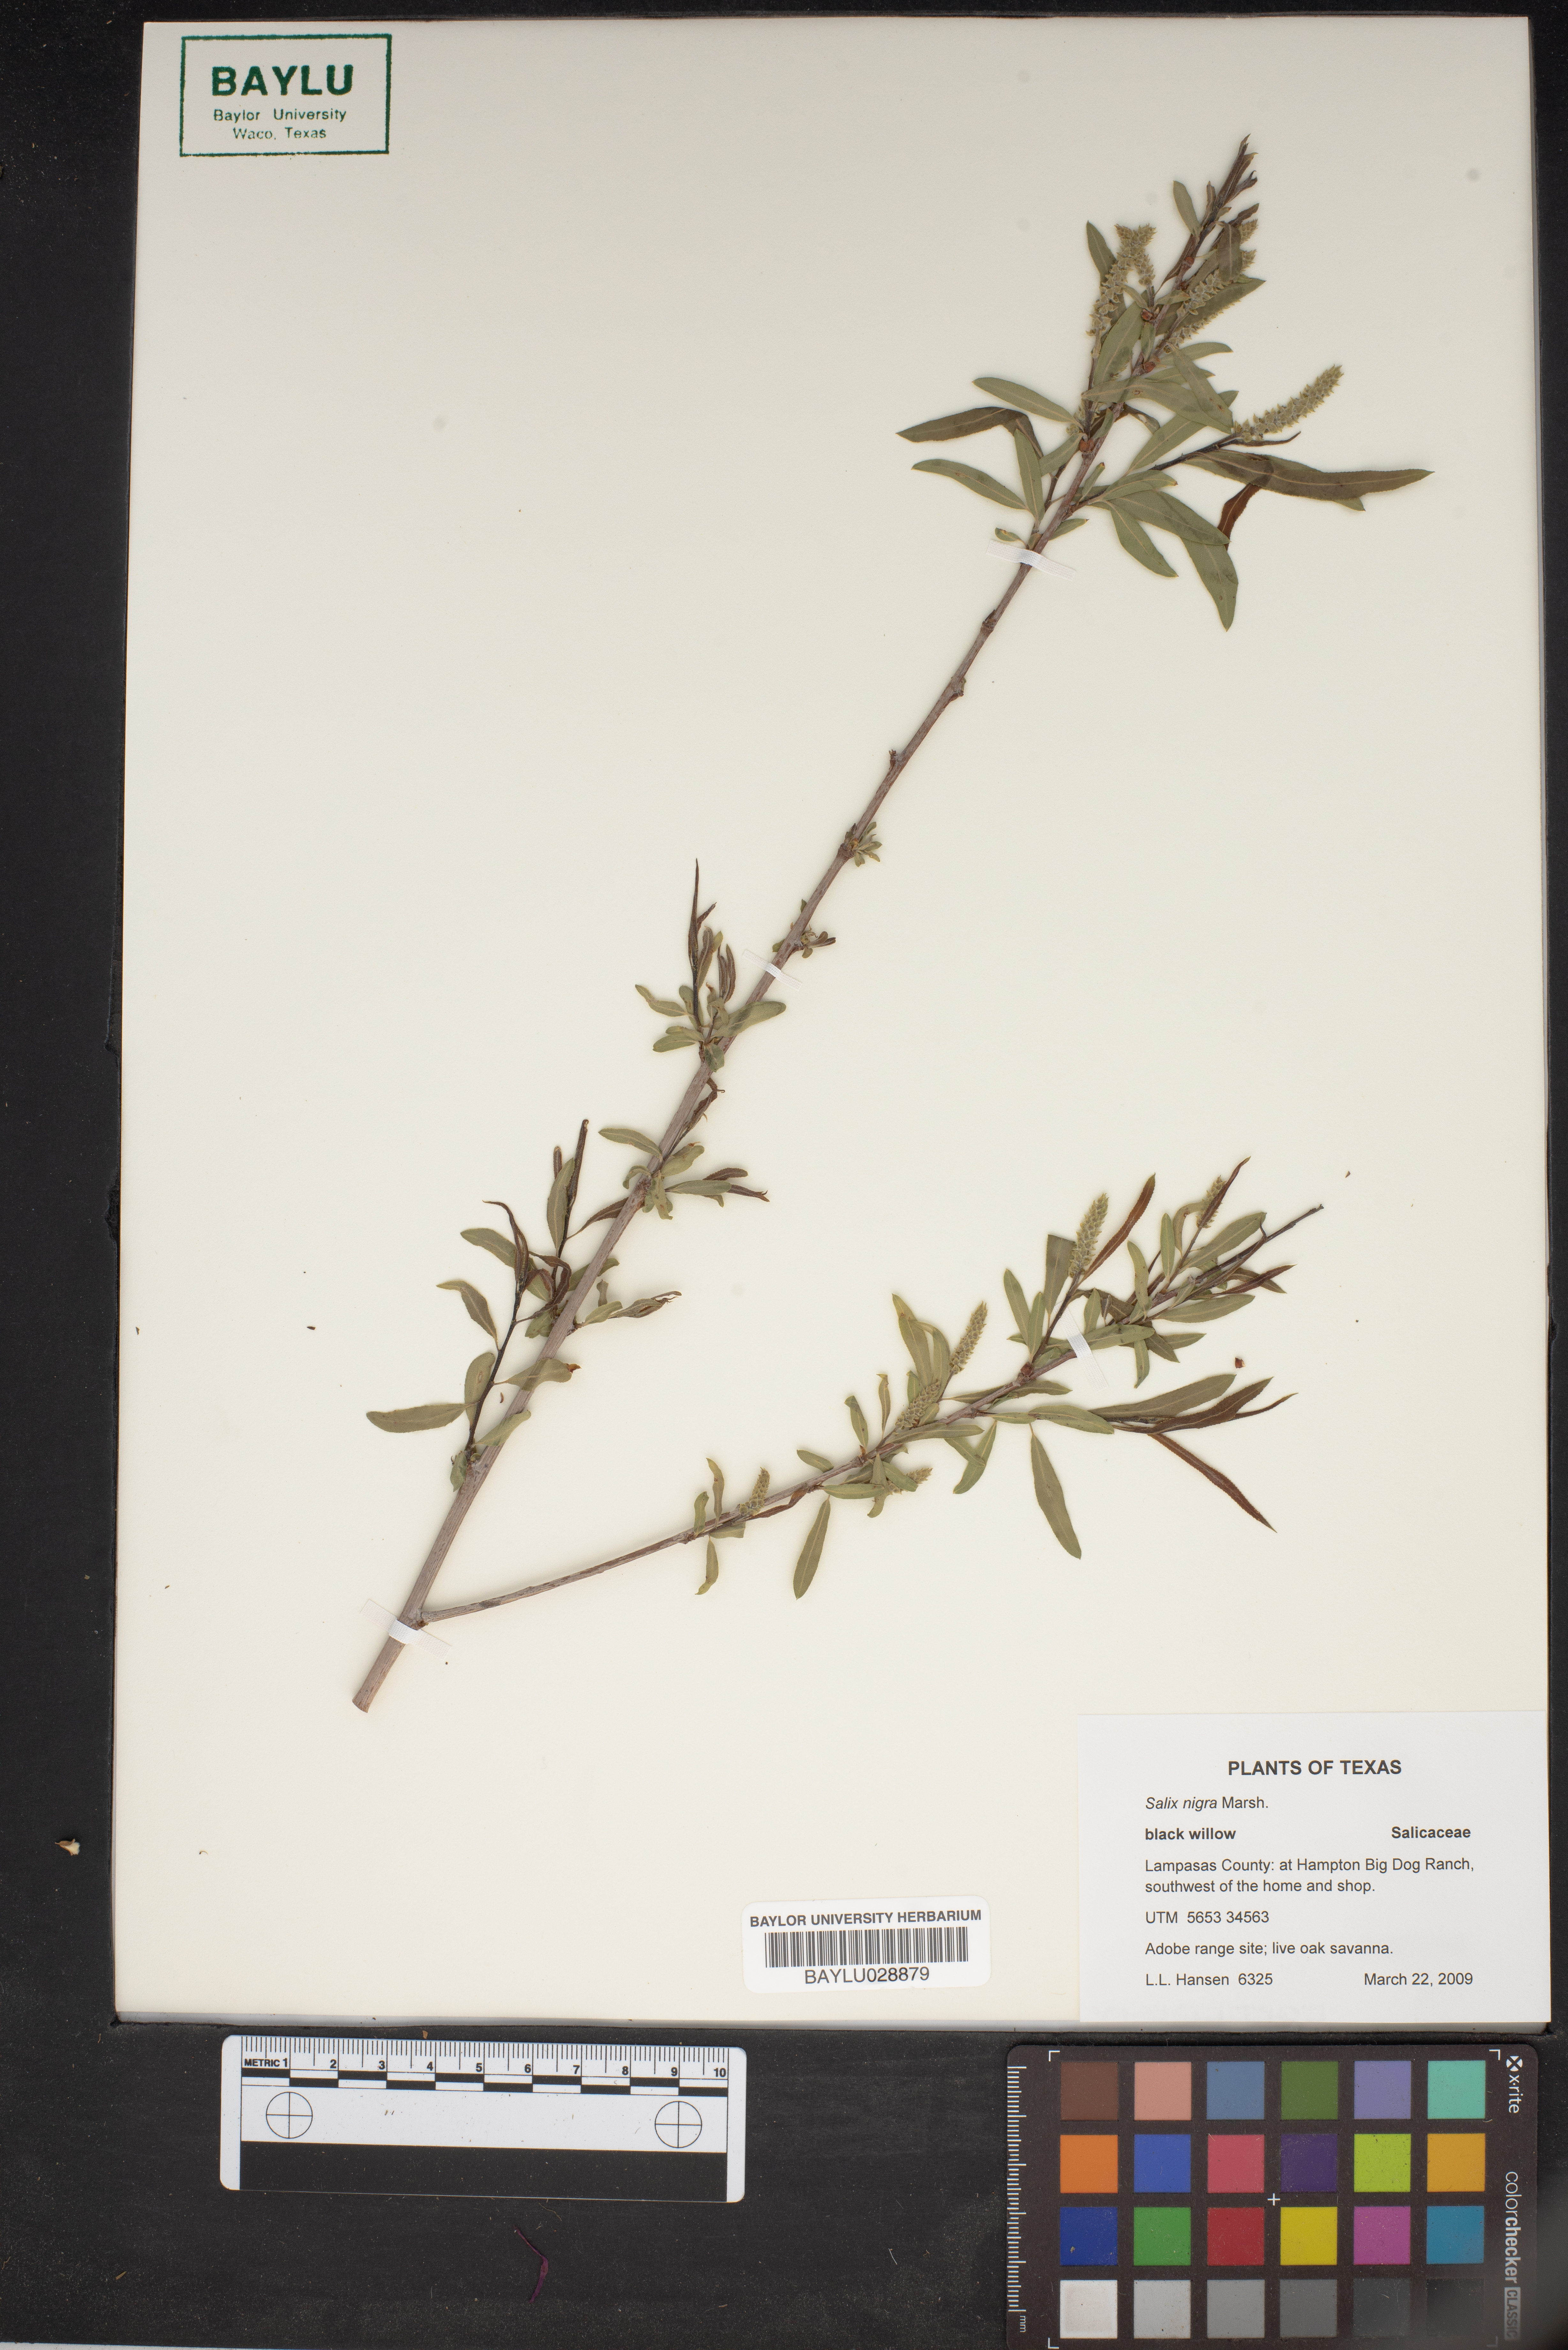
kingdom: Plantae
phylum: Tracheophyta
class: Magnoliopsida
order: Malpighiales
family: Salicaceae
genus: Salix
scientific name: Salix nigra
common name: Black willow
